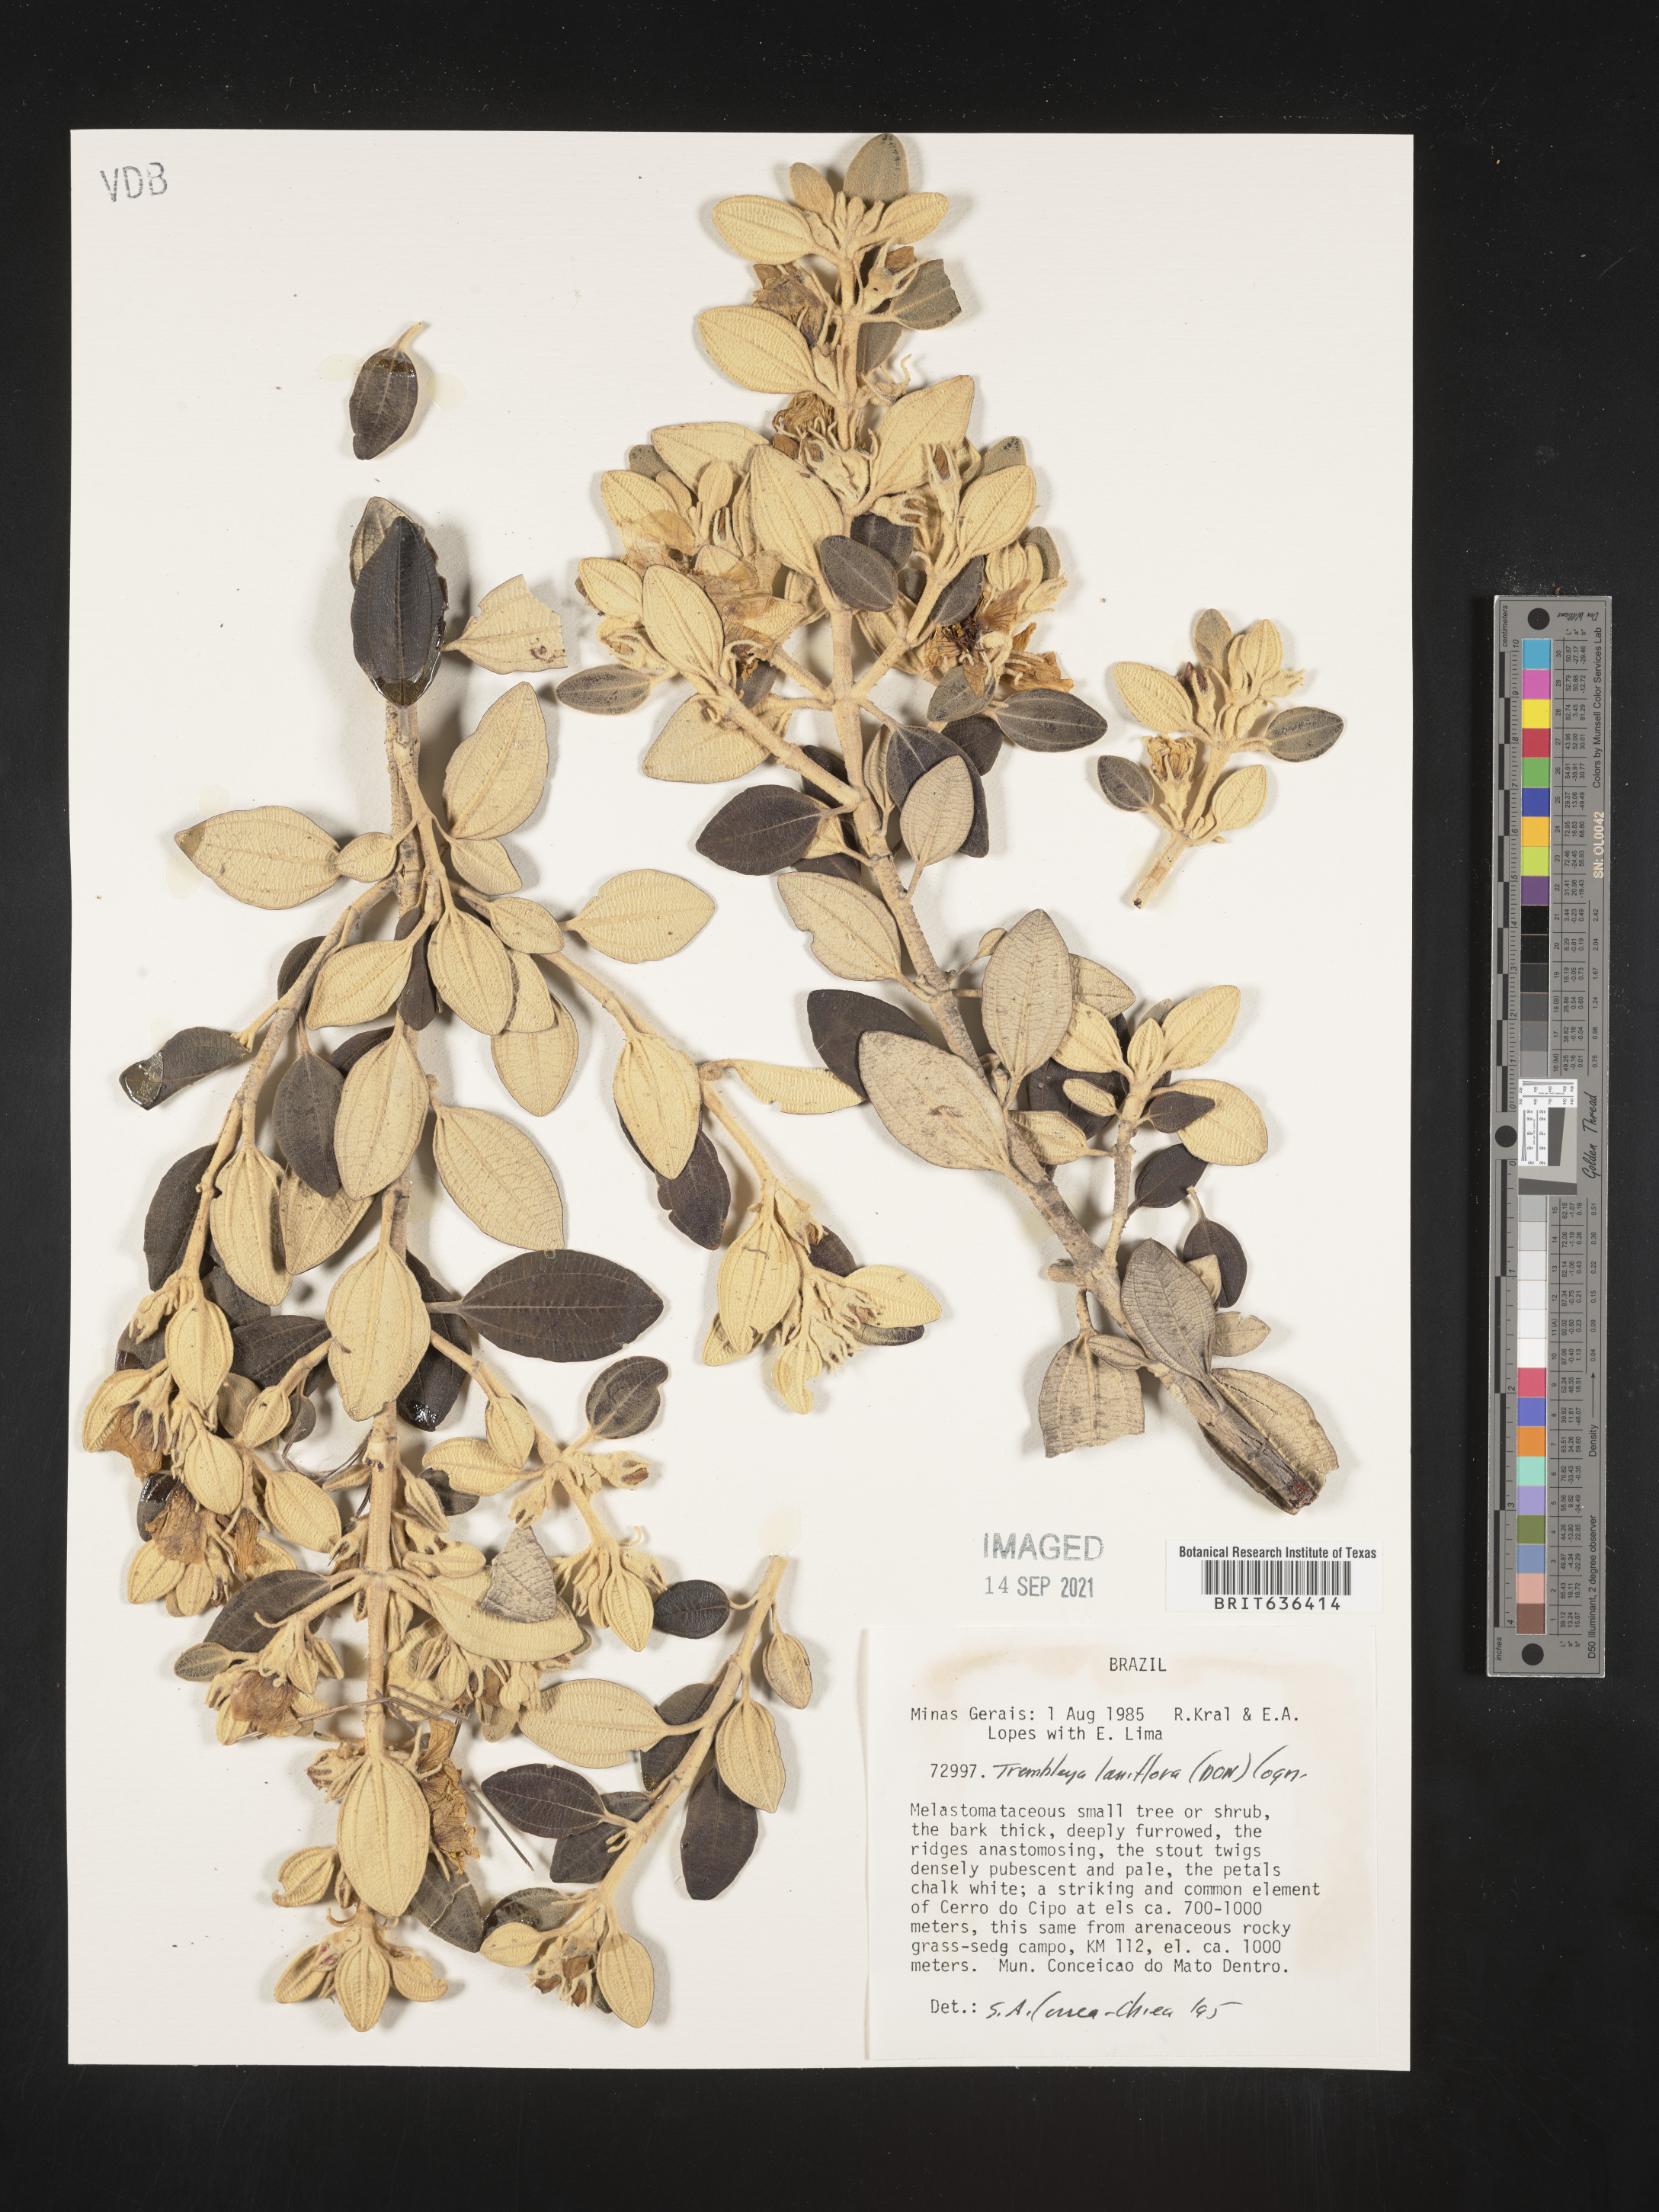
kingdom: Plantae
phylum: Tracheophyta
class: Magnoliopsida
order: Myrtales
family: Melastomataceae
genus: Microlicia
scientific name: Microlicia
